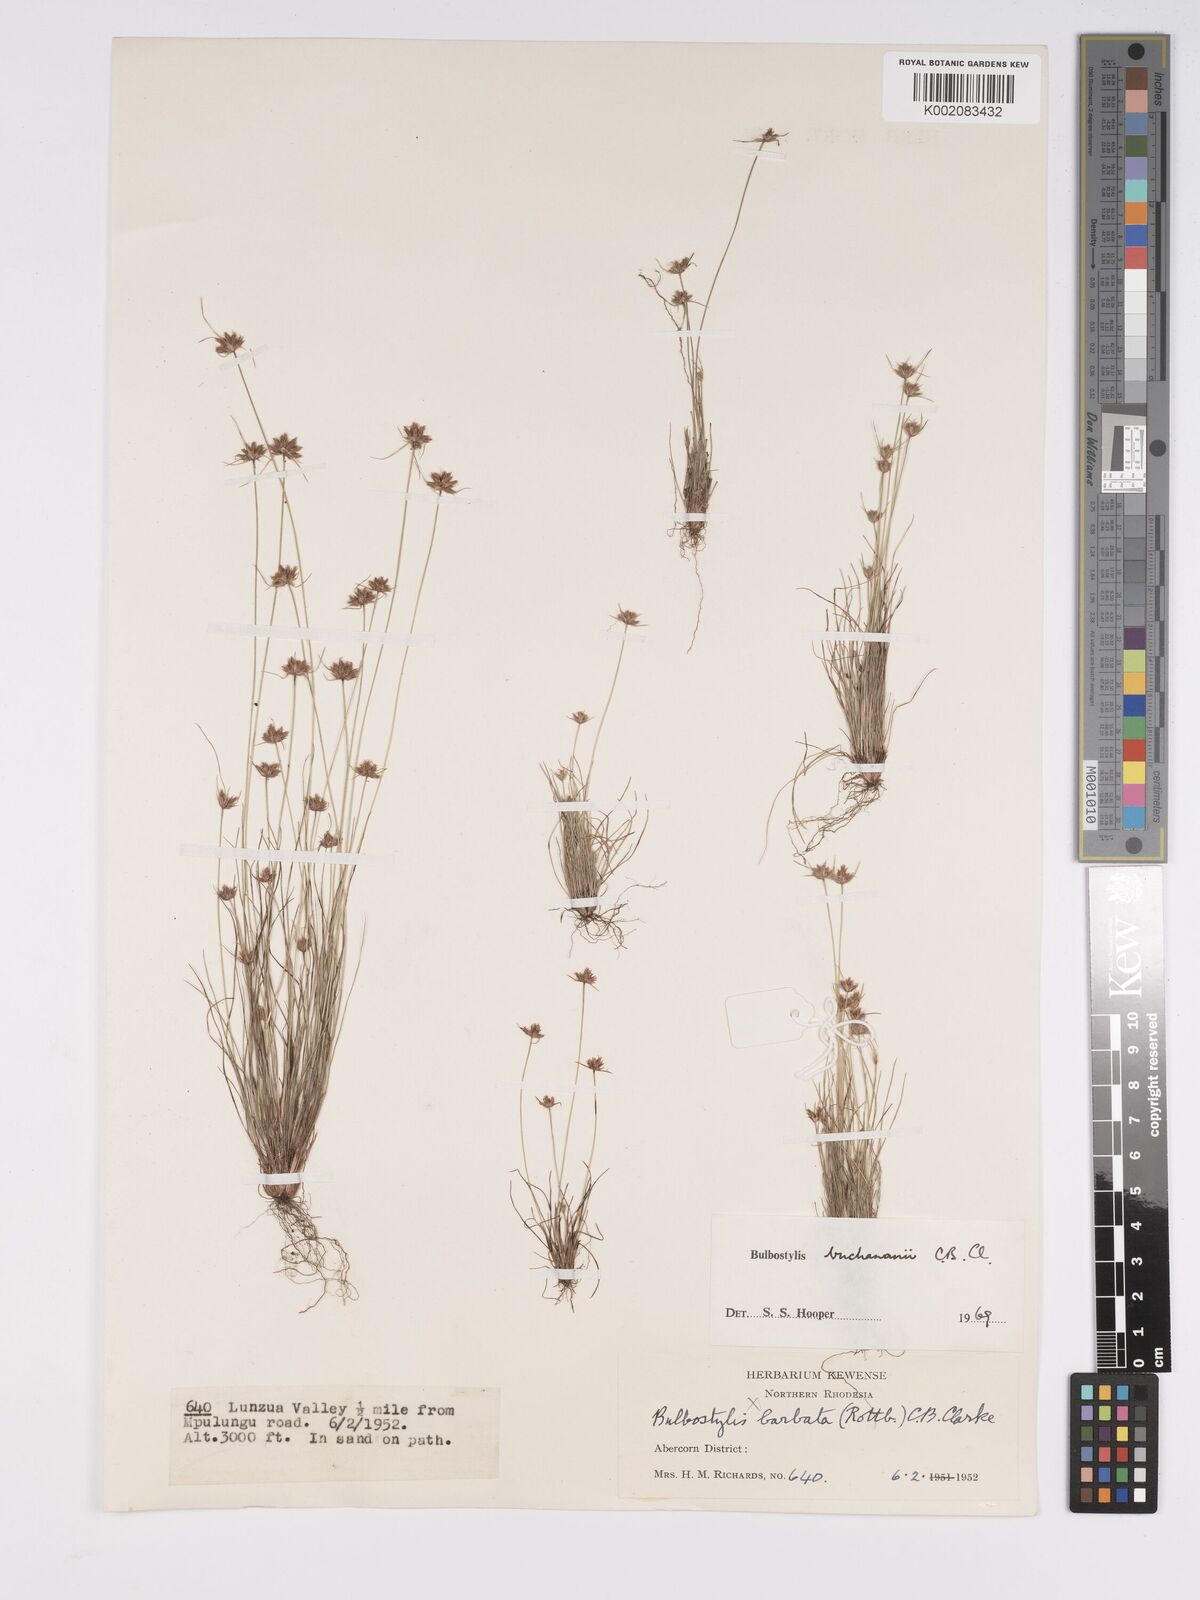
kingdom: Plantae
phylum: Tracheophyta
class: Liliopsida
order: Poales
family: Cyperaceae
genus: Bulbostylis
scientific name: Bulbostylis buchananii
